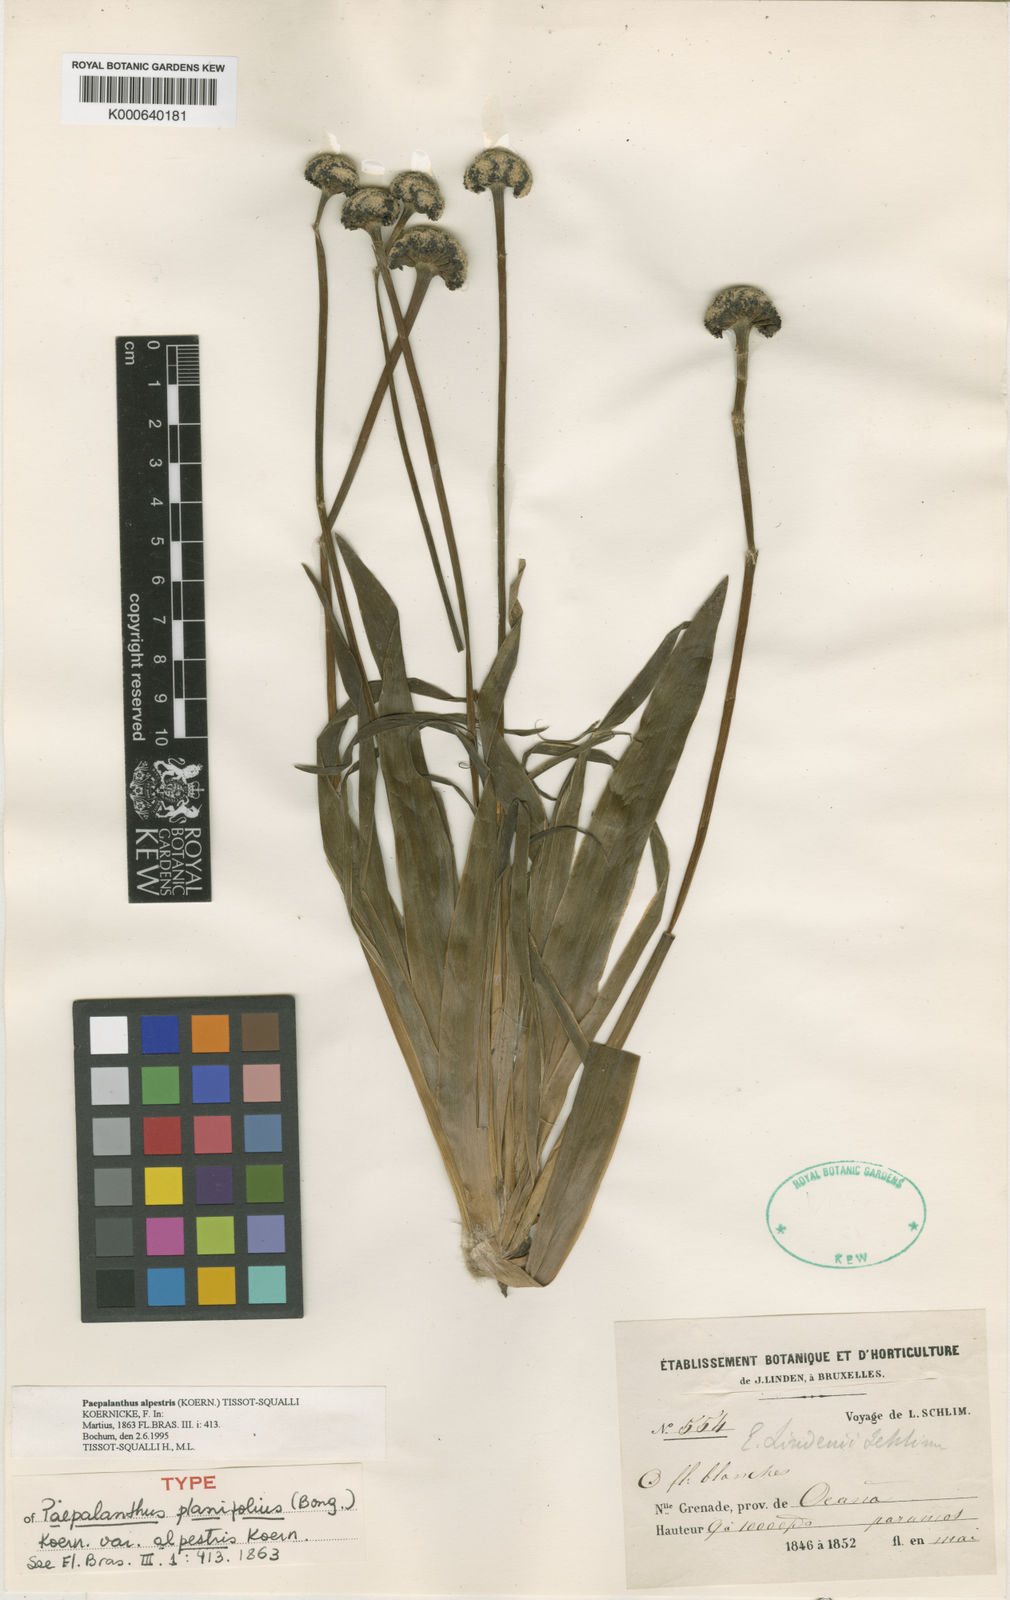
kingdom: Plantae
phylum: Tracheophyta
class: Liliopsida
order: Poales
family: Eriocaulaceae
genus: Paepalanthus
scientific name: Paepalanthus
